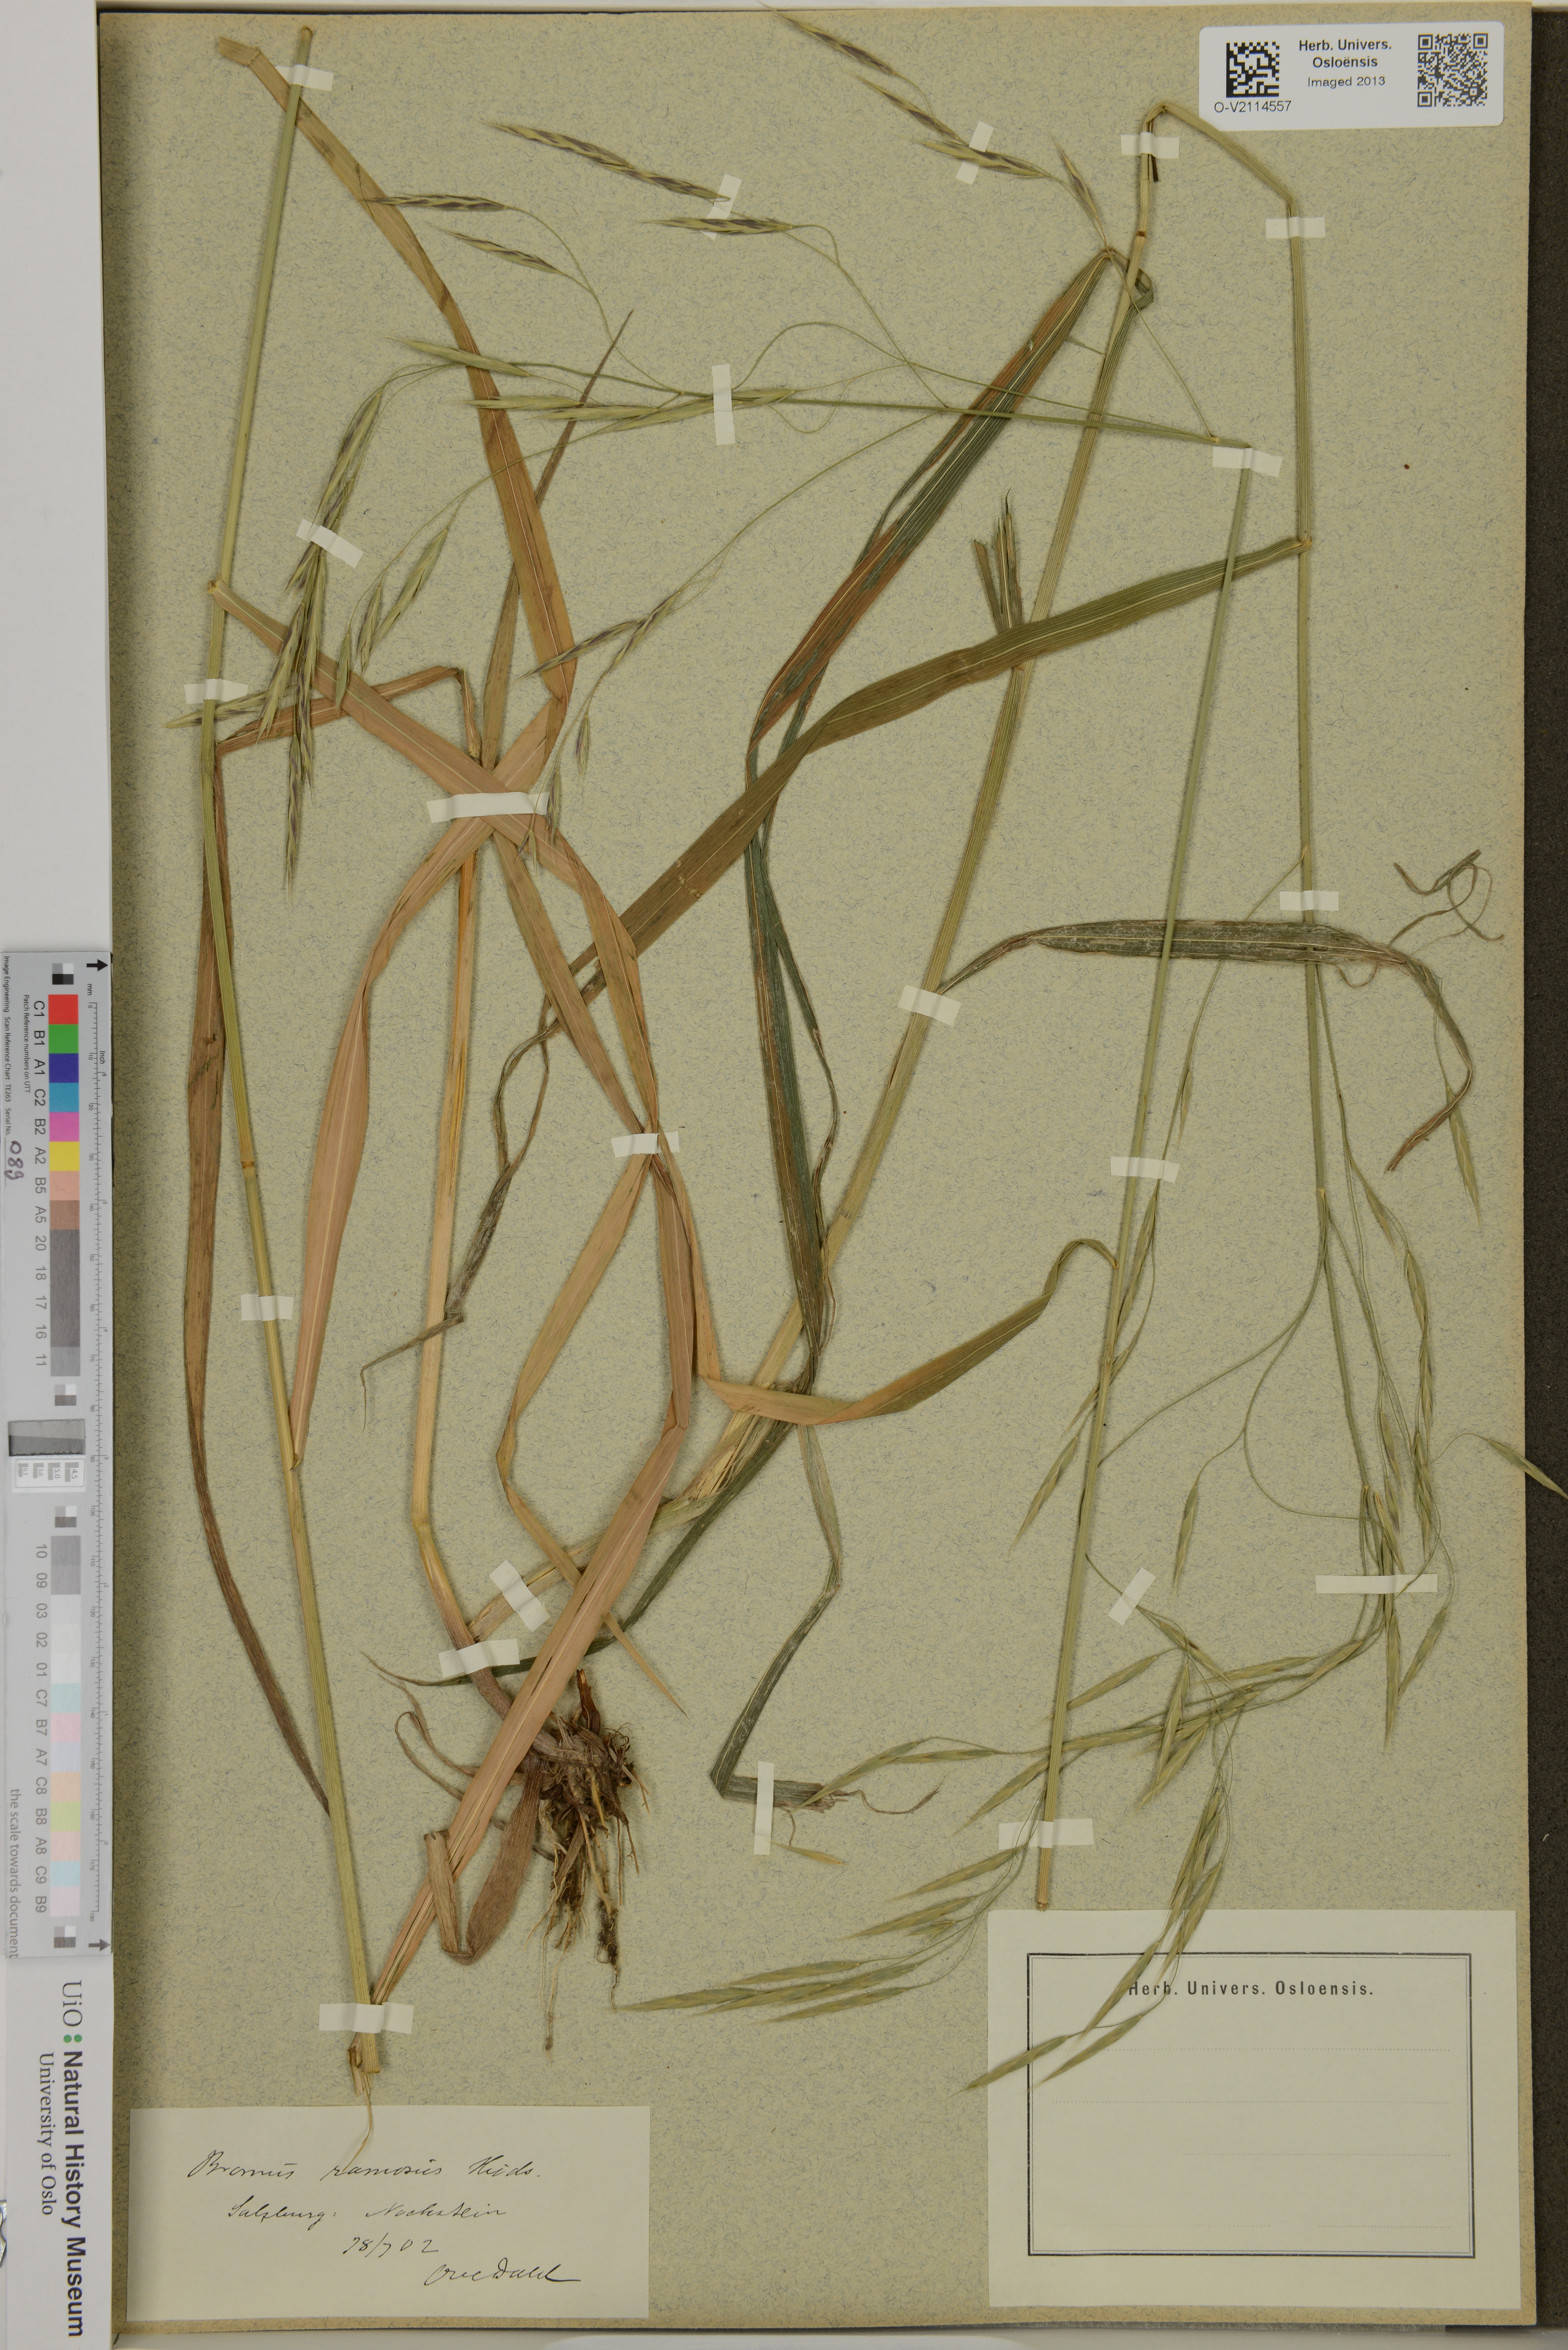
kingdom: Plantae
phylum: Tracheophyta
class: Liliopsida
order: Poales
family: Poaceae
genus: Bromus
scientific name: Bromus ramosus
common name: Hairy brome
